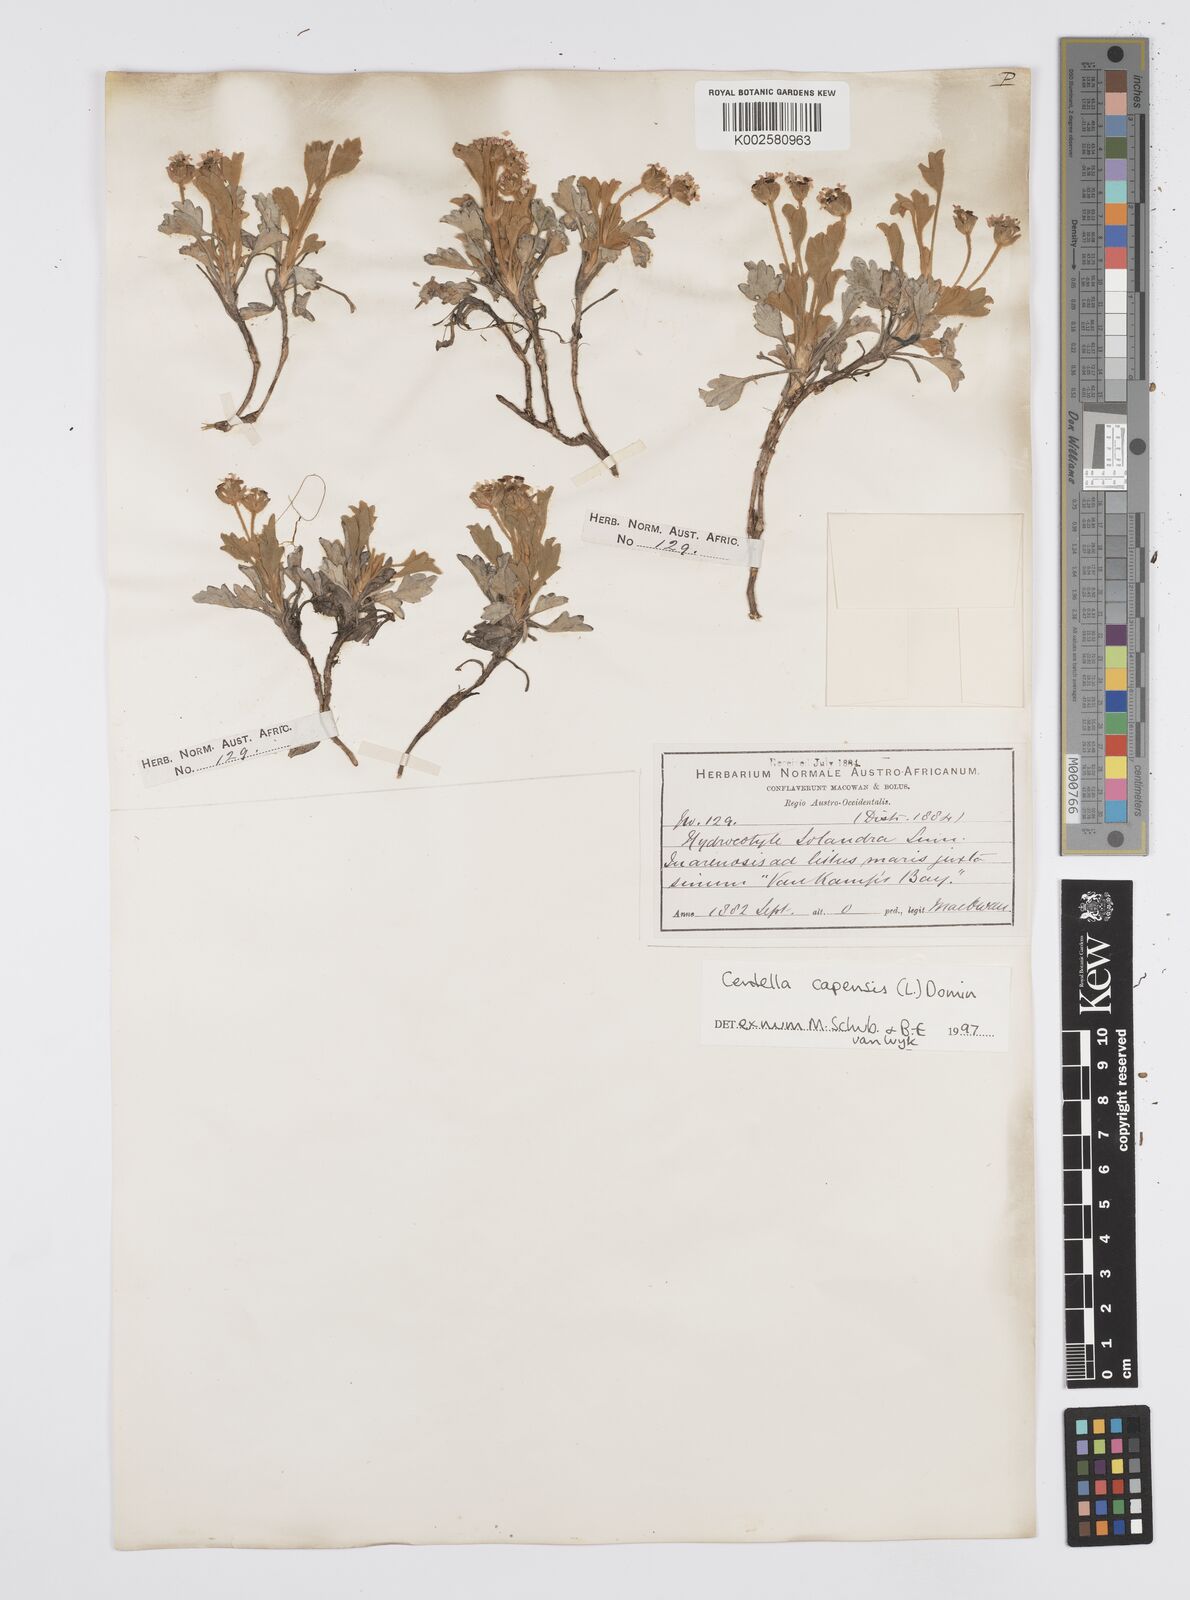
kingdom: Plantae
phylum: Tracheophyta
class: Magnoliopsida
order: Apiales
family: Apiaceae
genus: Centella
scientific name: Centella capensis
